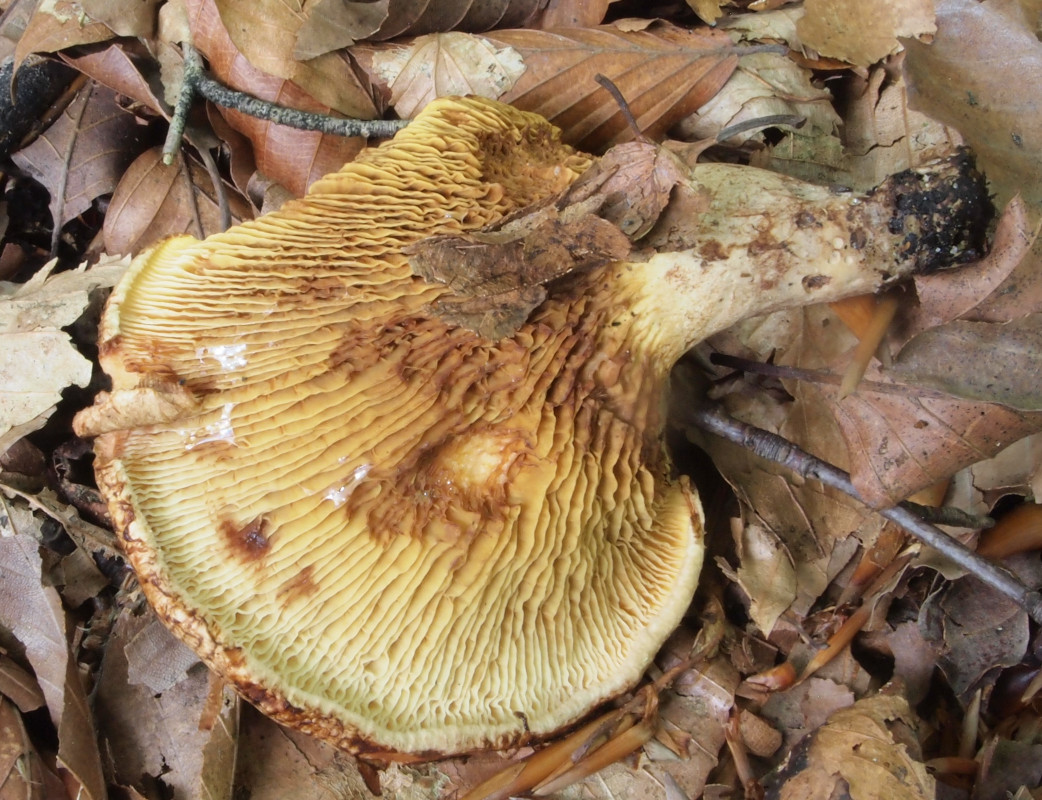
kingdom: Fungi
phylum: Basidiomycota
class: Agaricomycetes
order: Boletales
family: Paxillaceae
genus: Paxillus
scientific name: Paxillus rubicundulus
